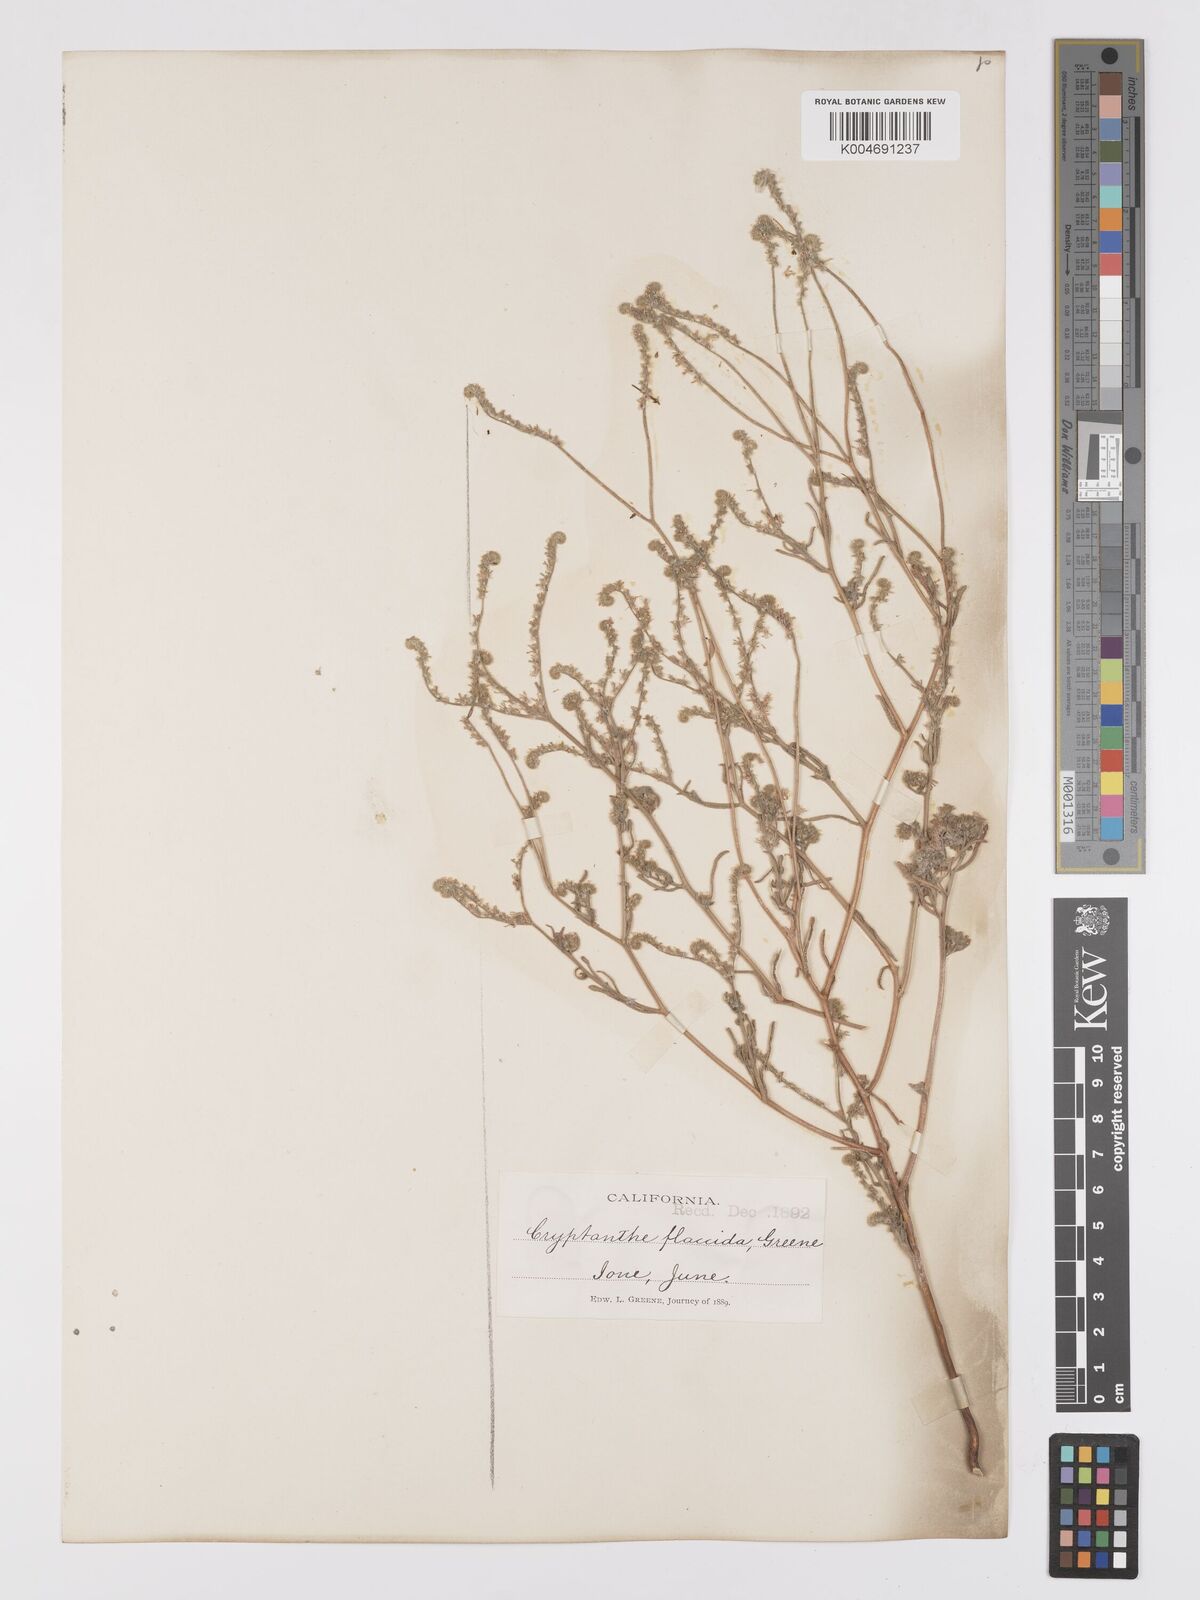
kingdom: Plantae
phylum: Tracheophyta
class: Magnoliopsida
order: Boraginales
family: Boraginaceae
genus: Cryptantha
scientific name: Cryptantha flaccida
